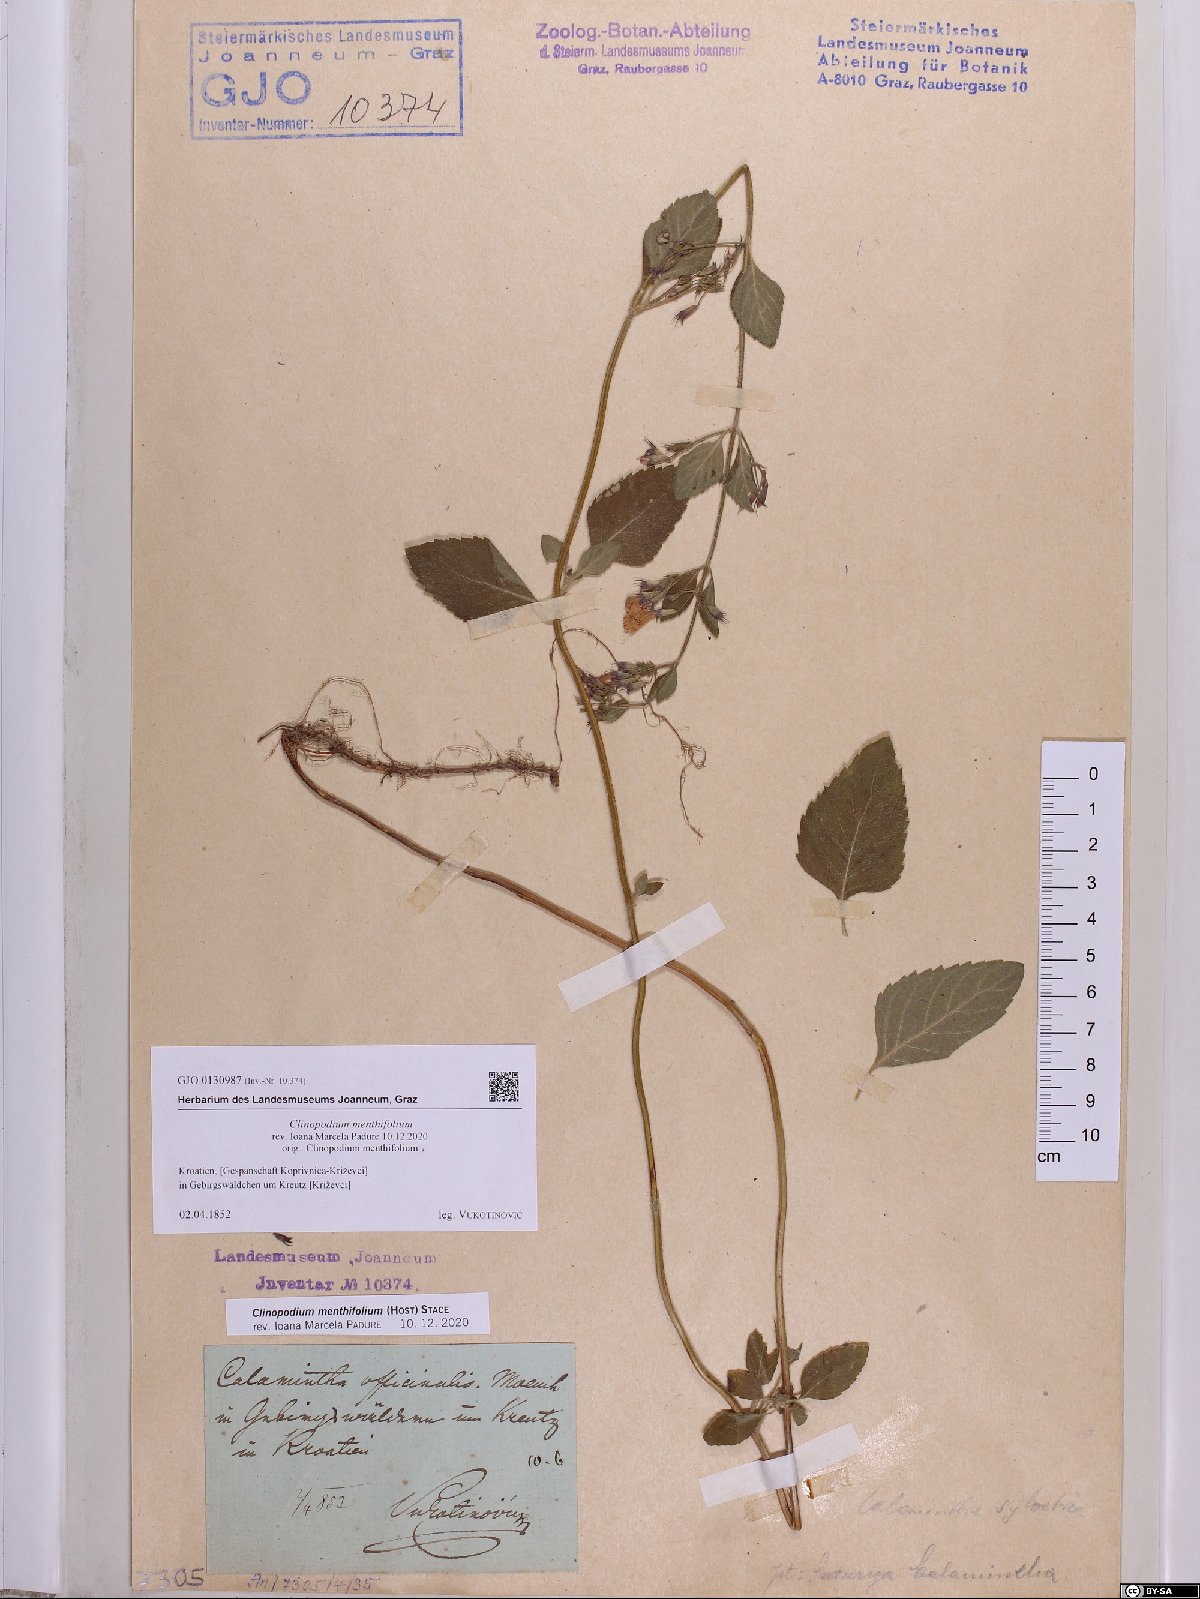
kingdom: Plantae
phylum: Tracheophyta
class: Magnoliopsida
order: Lamiales
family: Lamiaceae
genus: Clinopodium
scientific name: Clinopodium menthifolium
